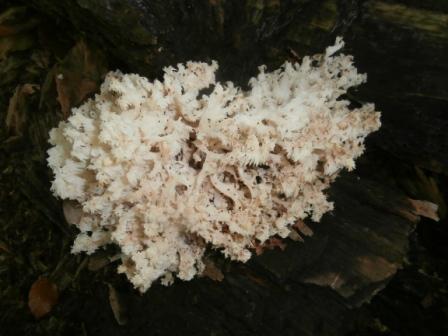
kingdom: Fungi
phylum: Basidiomycota
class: Agaricomycetes
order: Russulales
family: Hericiaceae
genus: Hericium
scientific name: Hericium coralloides
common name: koralpigsvamp
